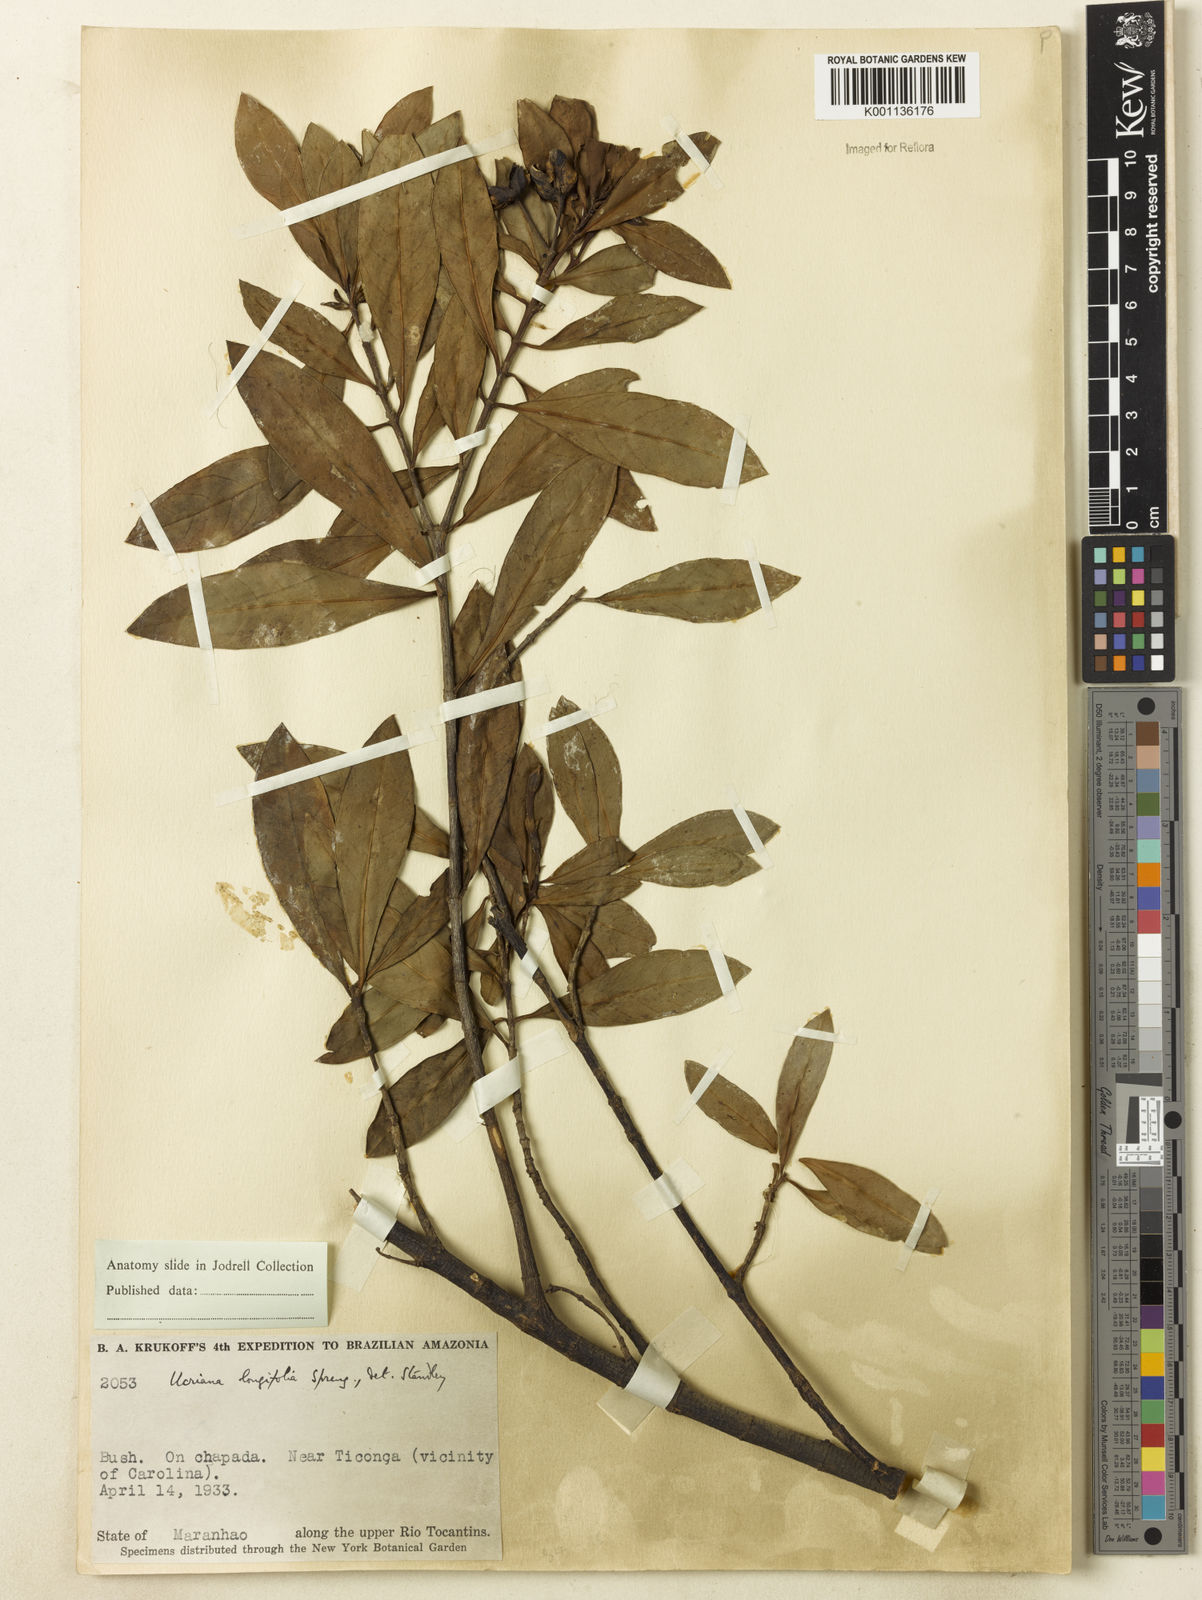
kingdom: Plantae
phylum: Tracheophyta
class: Magnoliopsida
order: Gentianales
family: Rubiaceae
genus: Augusta
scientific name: Augusta longifolia
